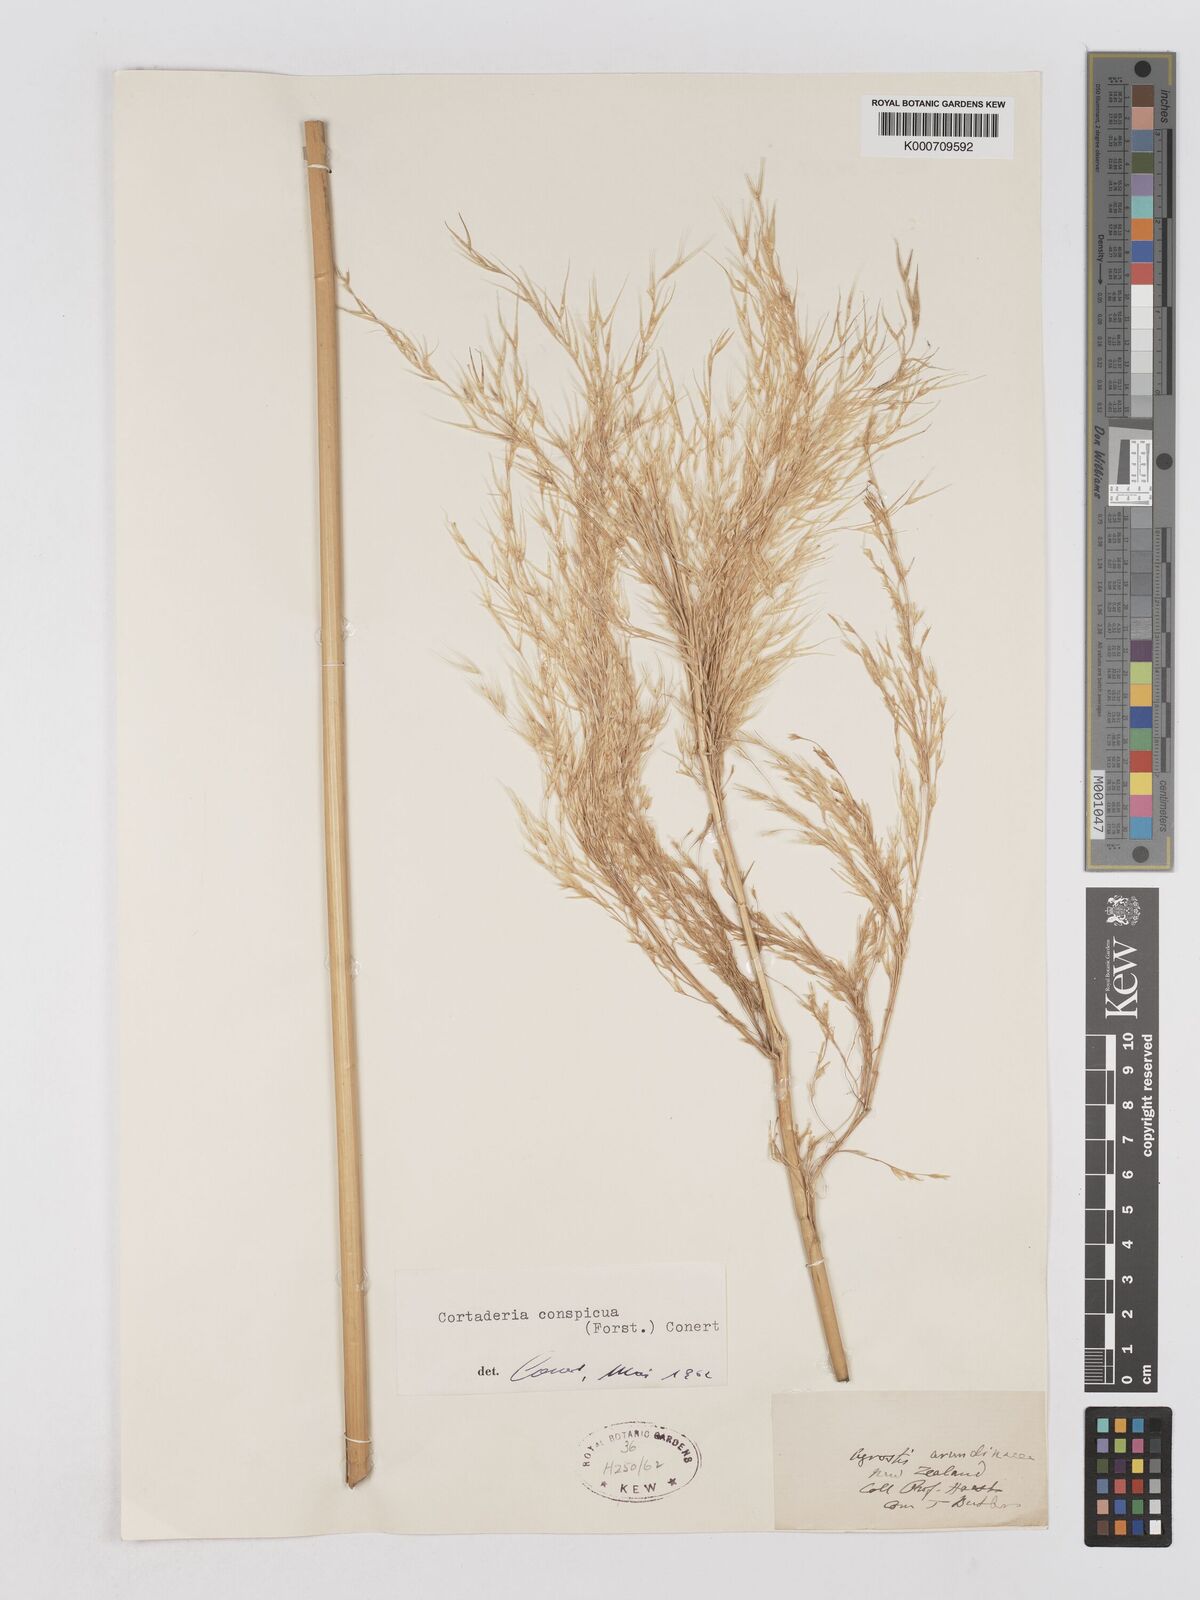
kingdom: Plantae
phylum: Tracheophyta
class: Liliopsida
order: Poales
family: Poaceae
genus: Austroderia
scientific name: Austroderia richardii
